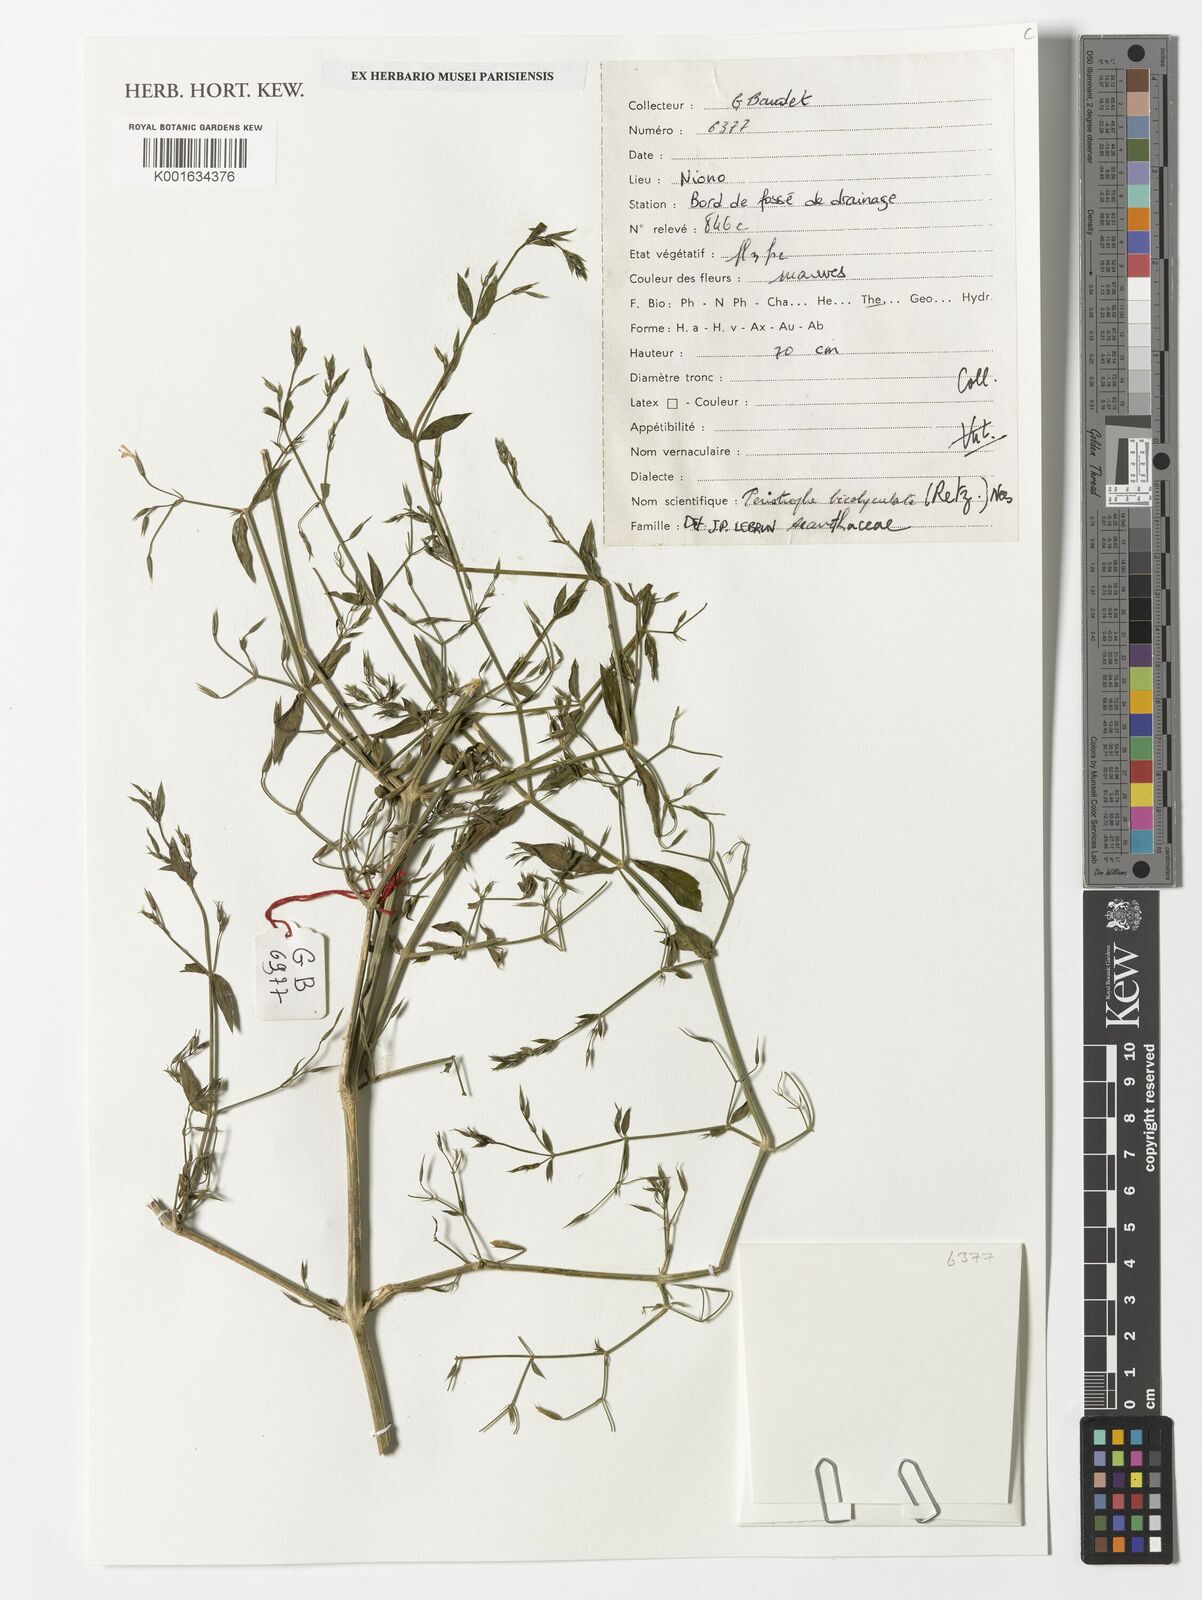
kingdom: Plantae
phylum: Tracheophyta
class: Magnoliopsida
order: Lamiales
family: Acanthaceae
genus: Dicliptera
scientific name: Dicliptera paniculata
